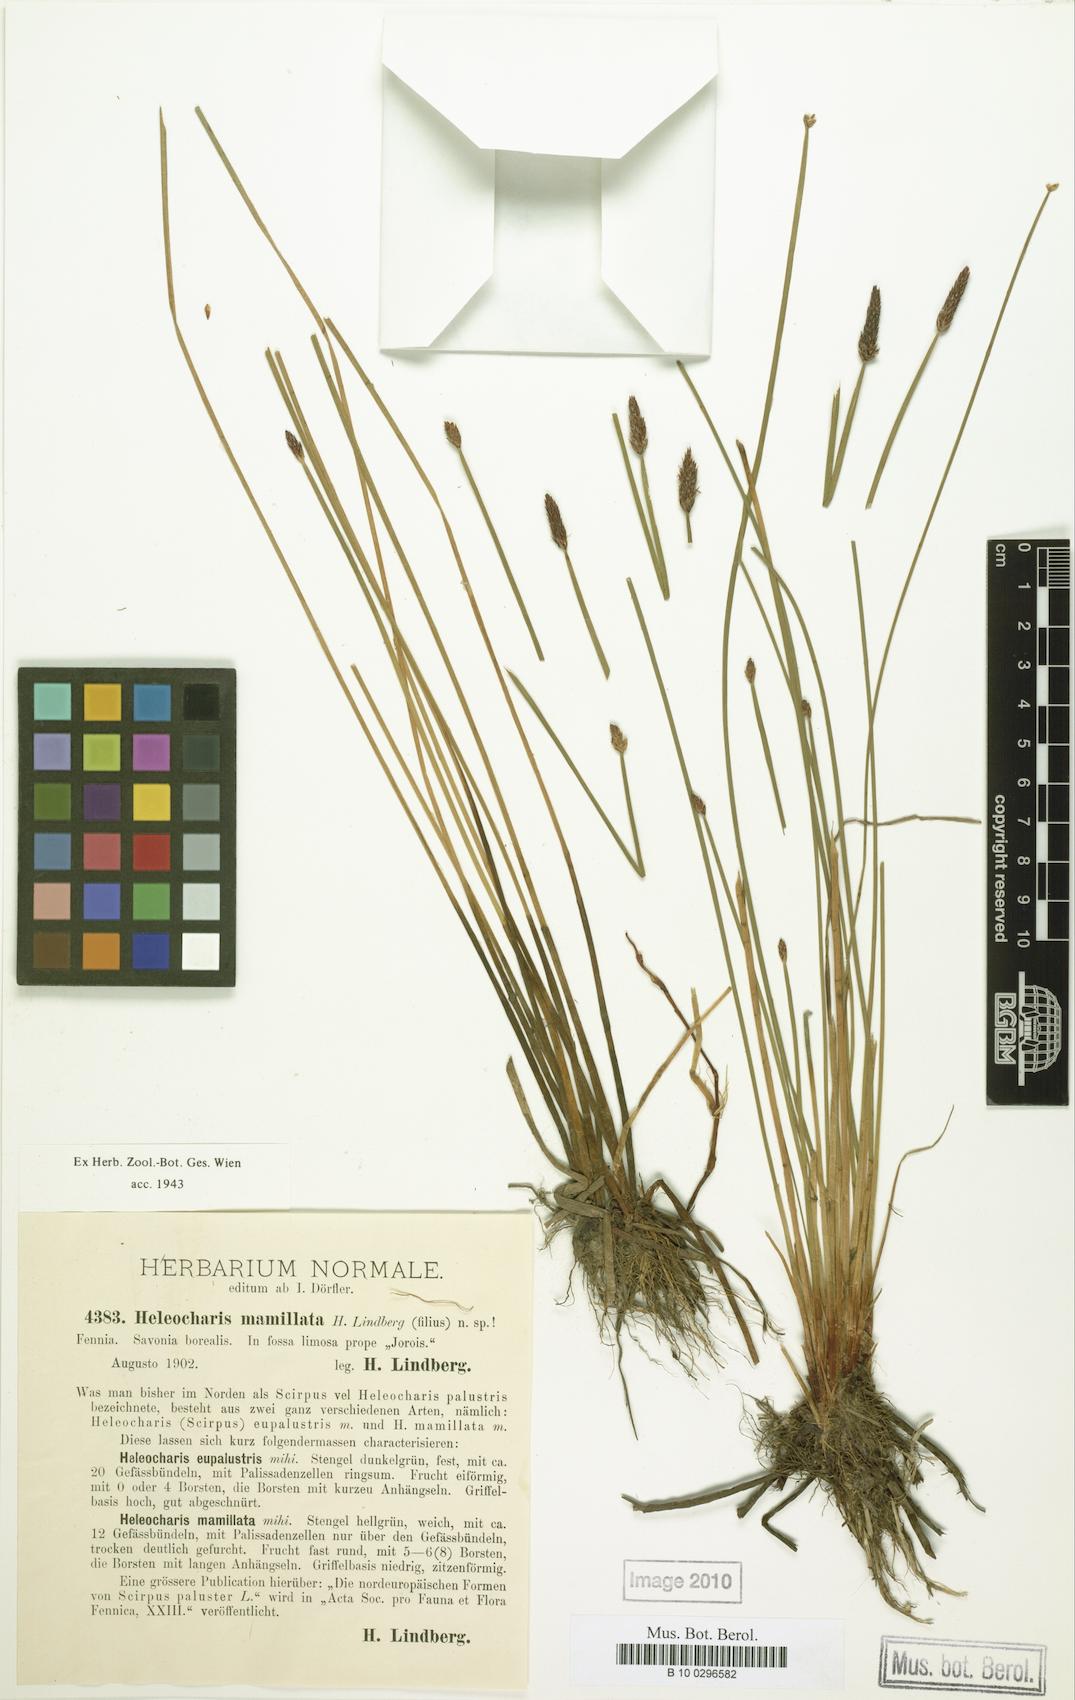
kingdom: Plantae
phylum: Tracheophyta
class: Liliopsida
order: Poales
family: Cyperaceae
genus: Eleocharis
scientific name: Eleocharis mamillata
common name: Northern spike-rush
